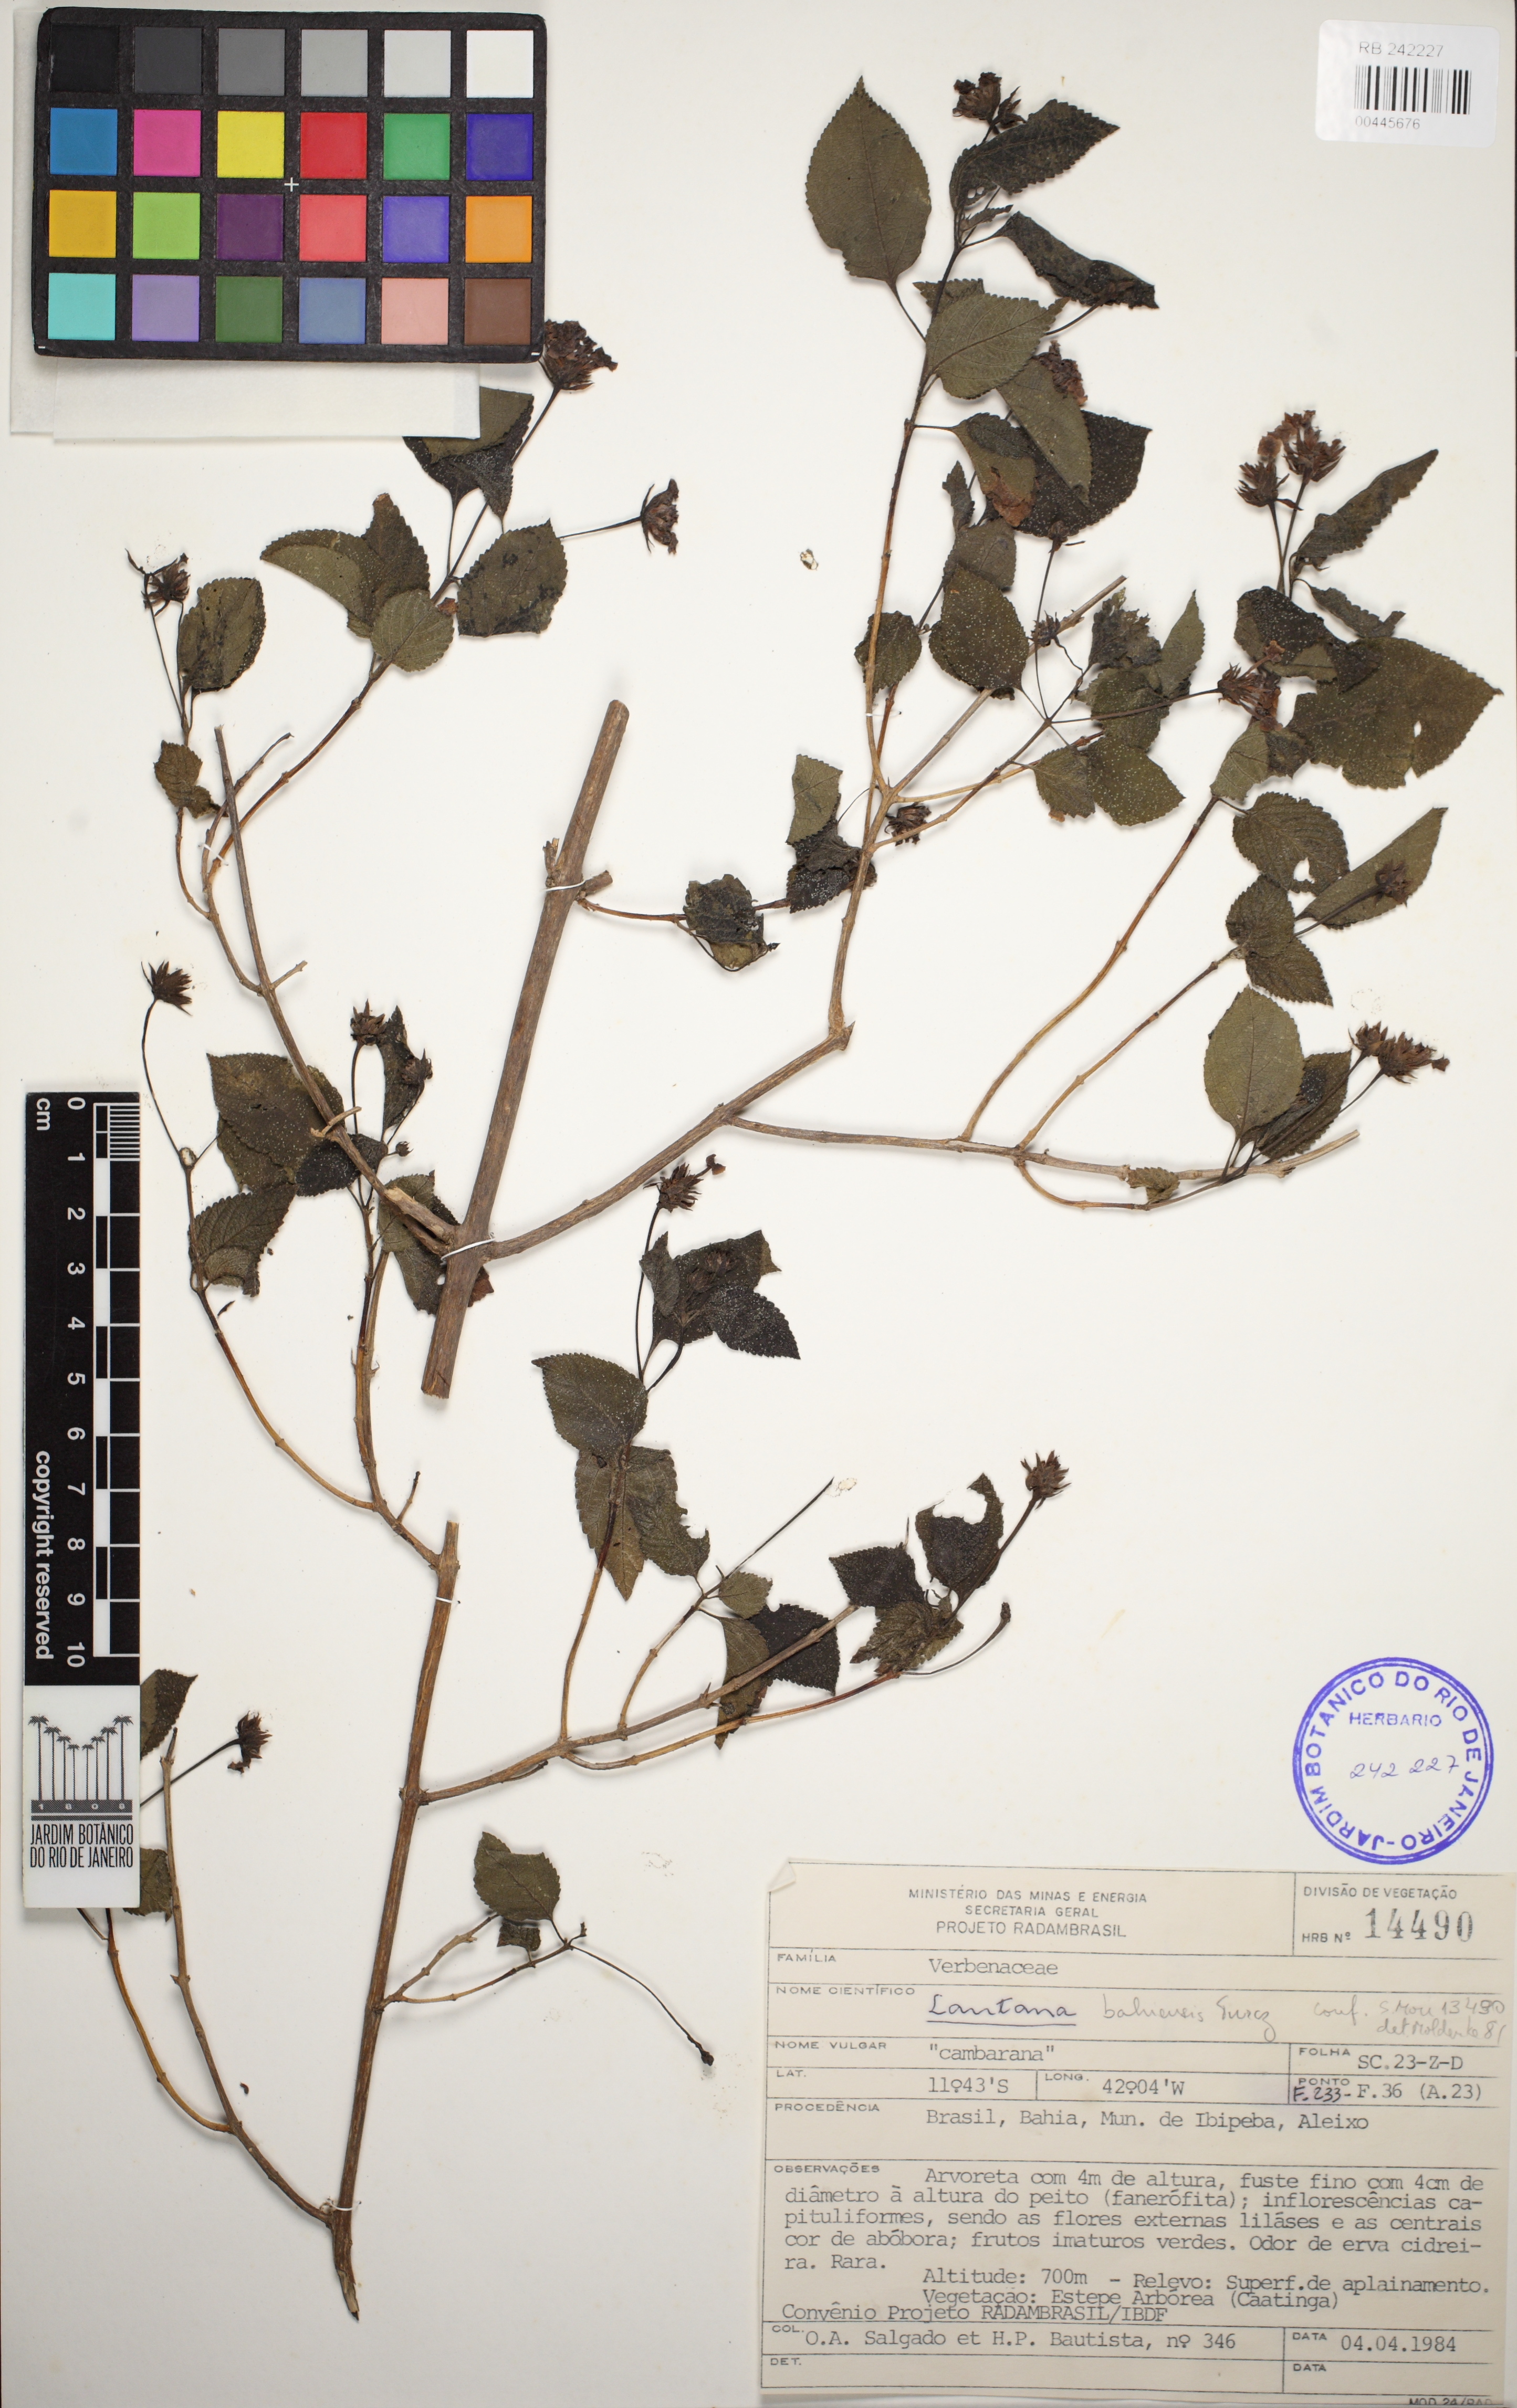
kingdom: Plantae
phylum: Tracheophyta
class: Magnoliopsida
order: Lamiales
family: Verbenaceae
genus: Lantana
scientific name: Lantana mutabilis
